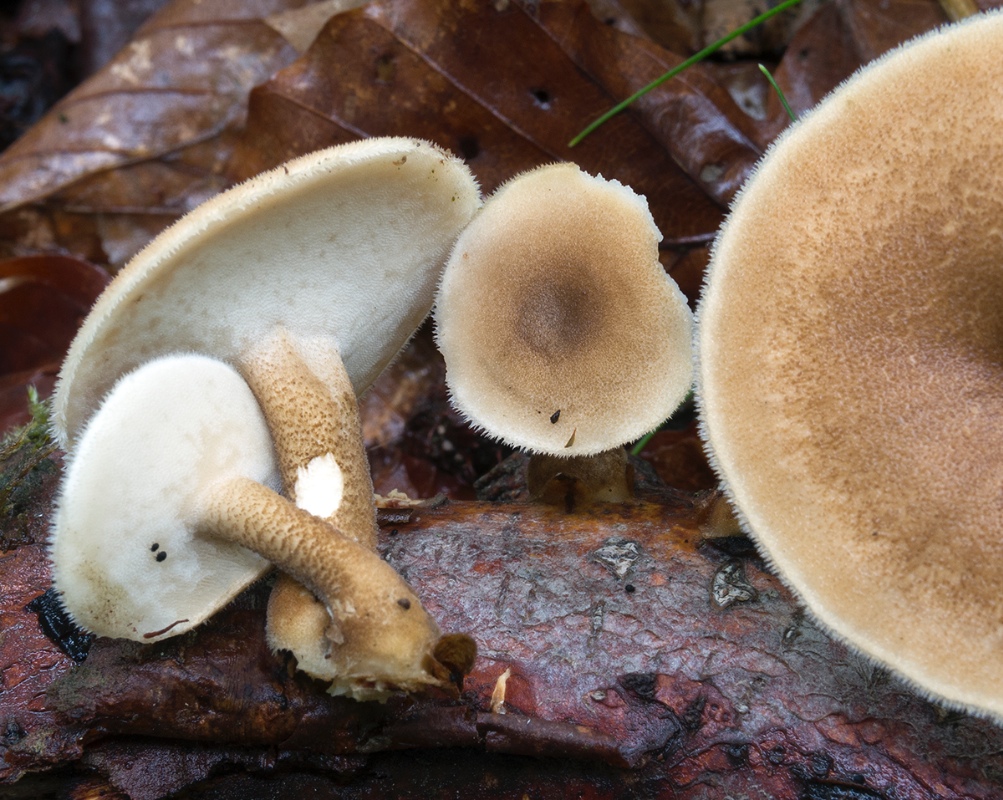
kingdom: Fungi
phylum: Basidiomycota
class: Agaricomycetes
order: Polyporales
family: Polyporaceae
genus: Lentinus
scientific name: Lentinus substrictus
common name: forårs-stilkporesvamp
